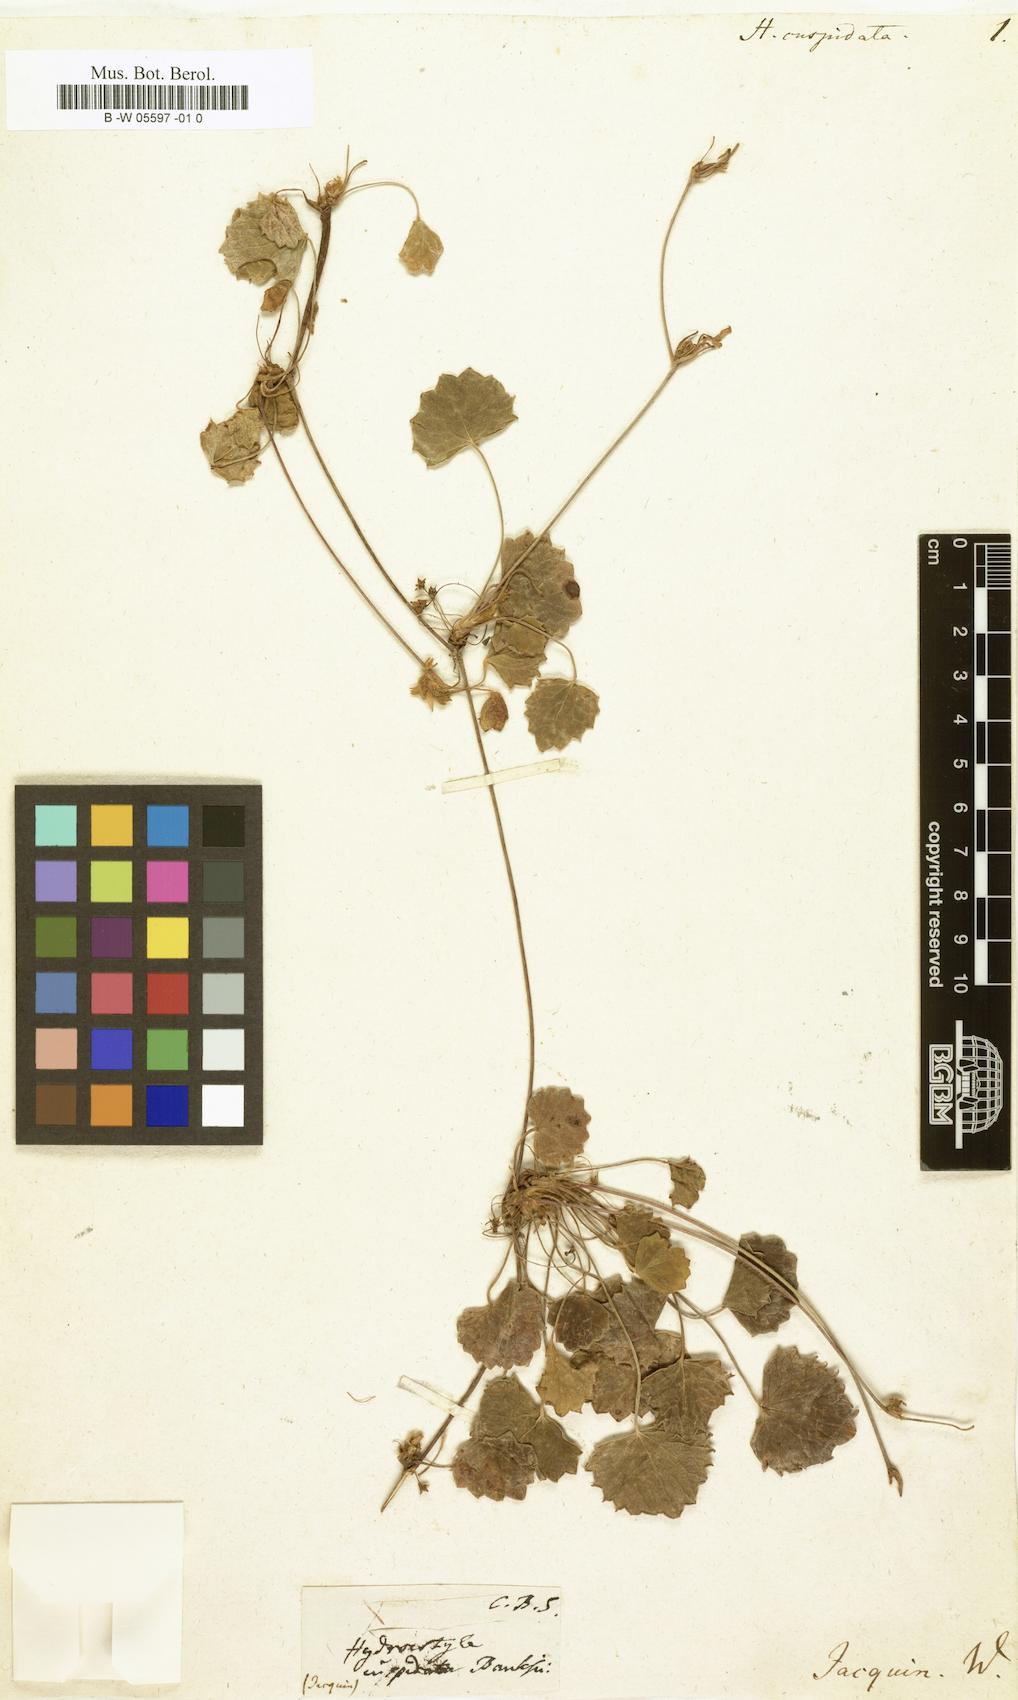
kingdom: Plantae
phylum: Tracheophyta
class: Magnoliopsida
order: Apiales
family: Apiaceae
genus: Centella
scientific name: Centella eriantha
